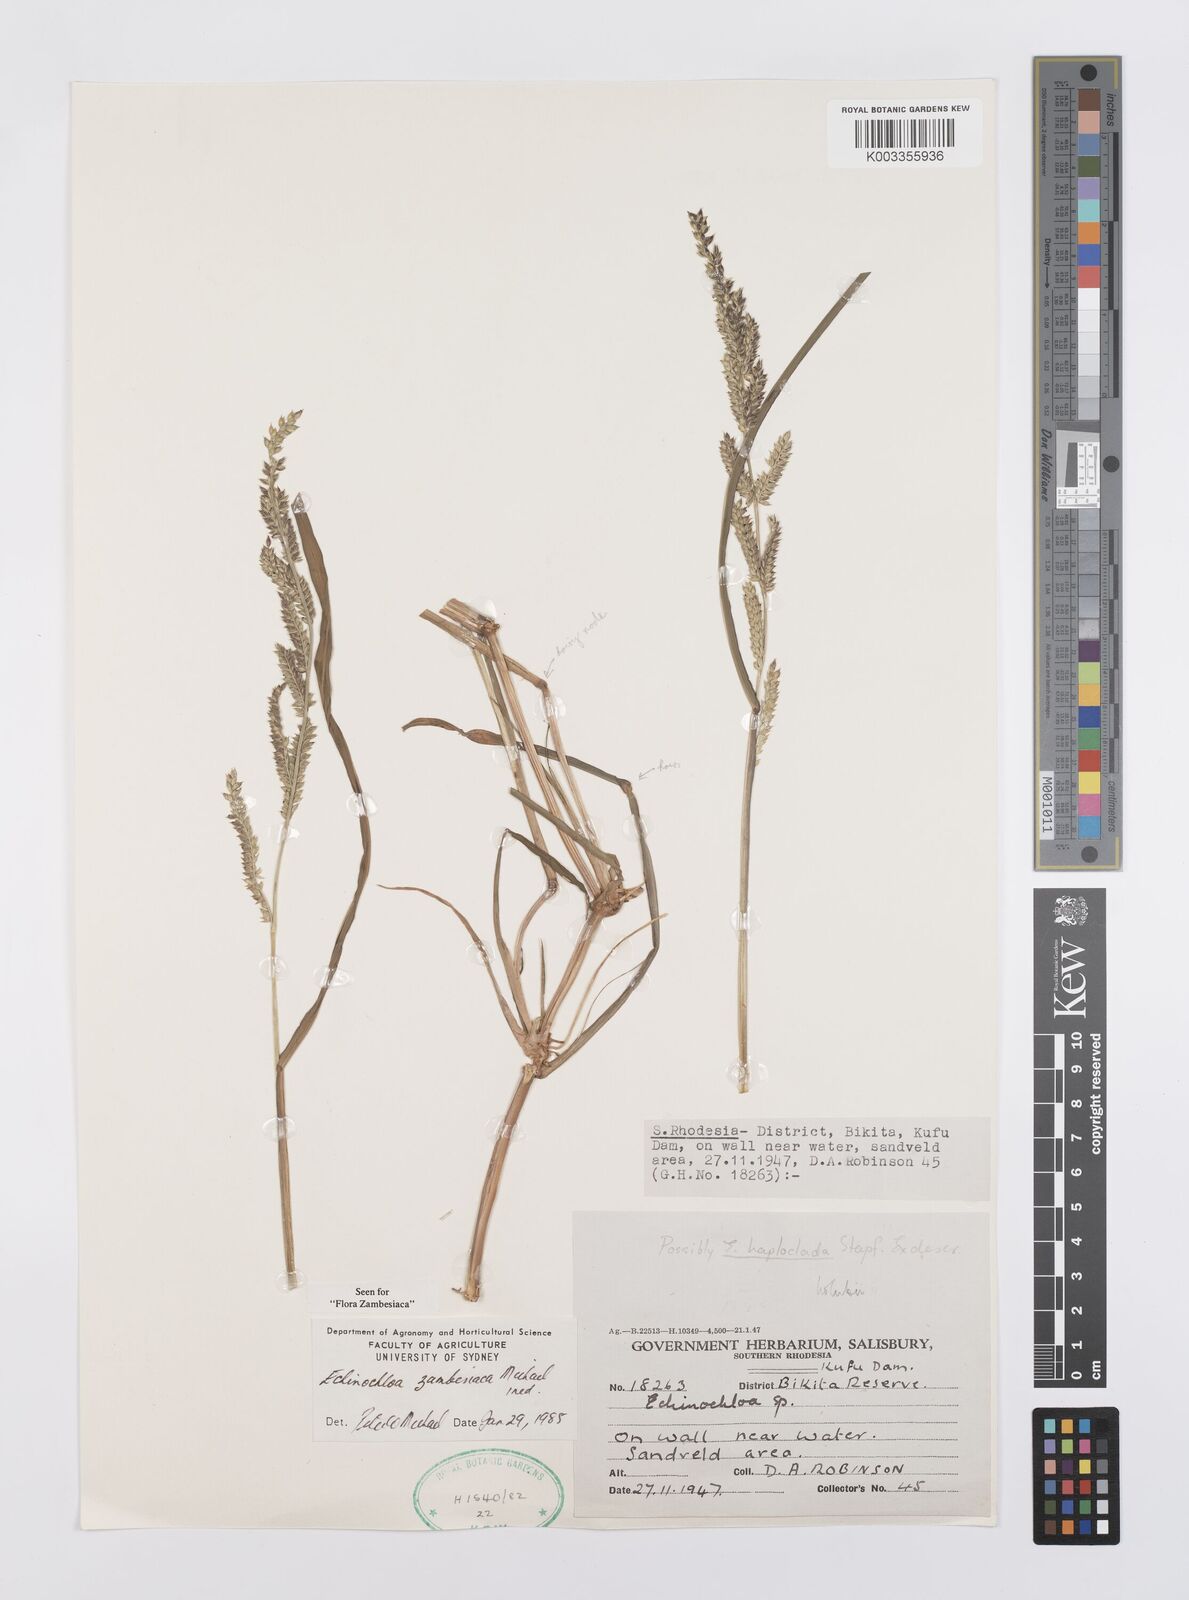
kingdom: Plantae
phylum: Tracheophyta
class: Liliopsida
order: Poales
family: Poaceae
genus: Echinochloa
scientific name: Echinochloa ugandensis
